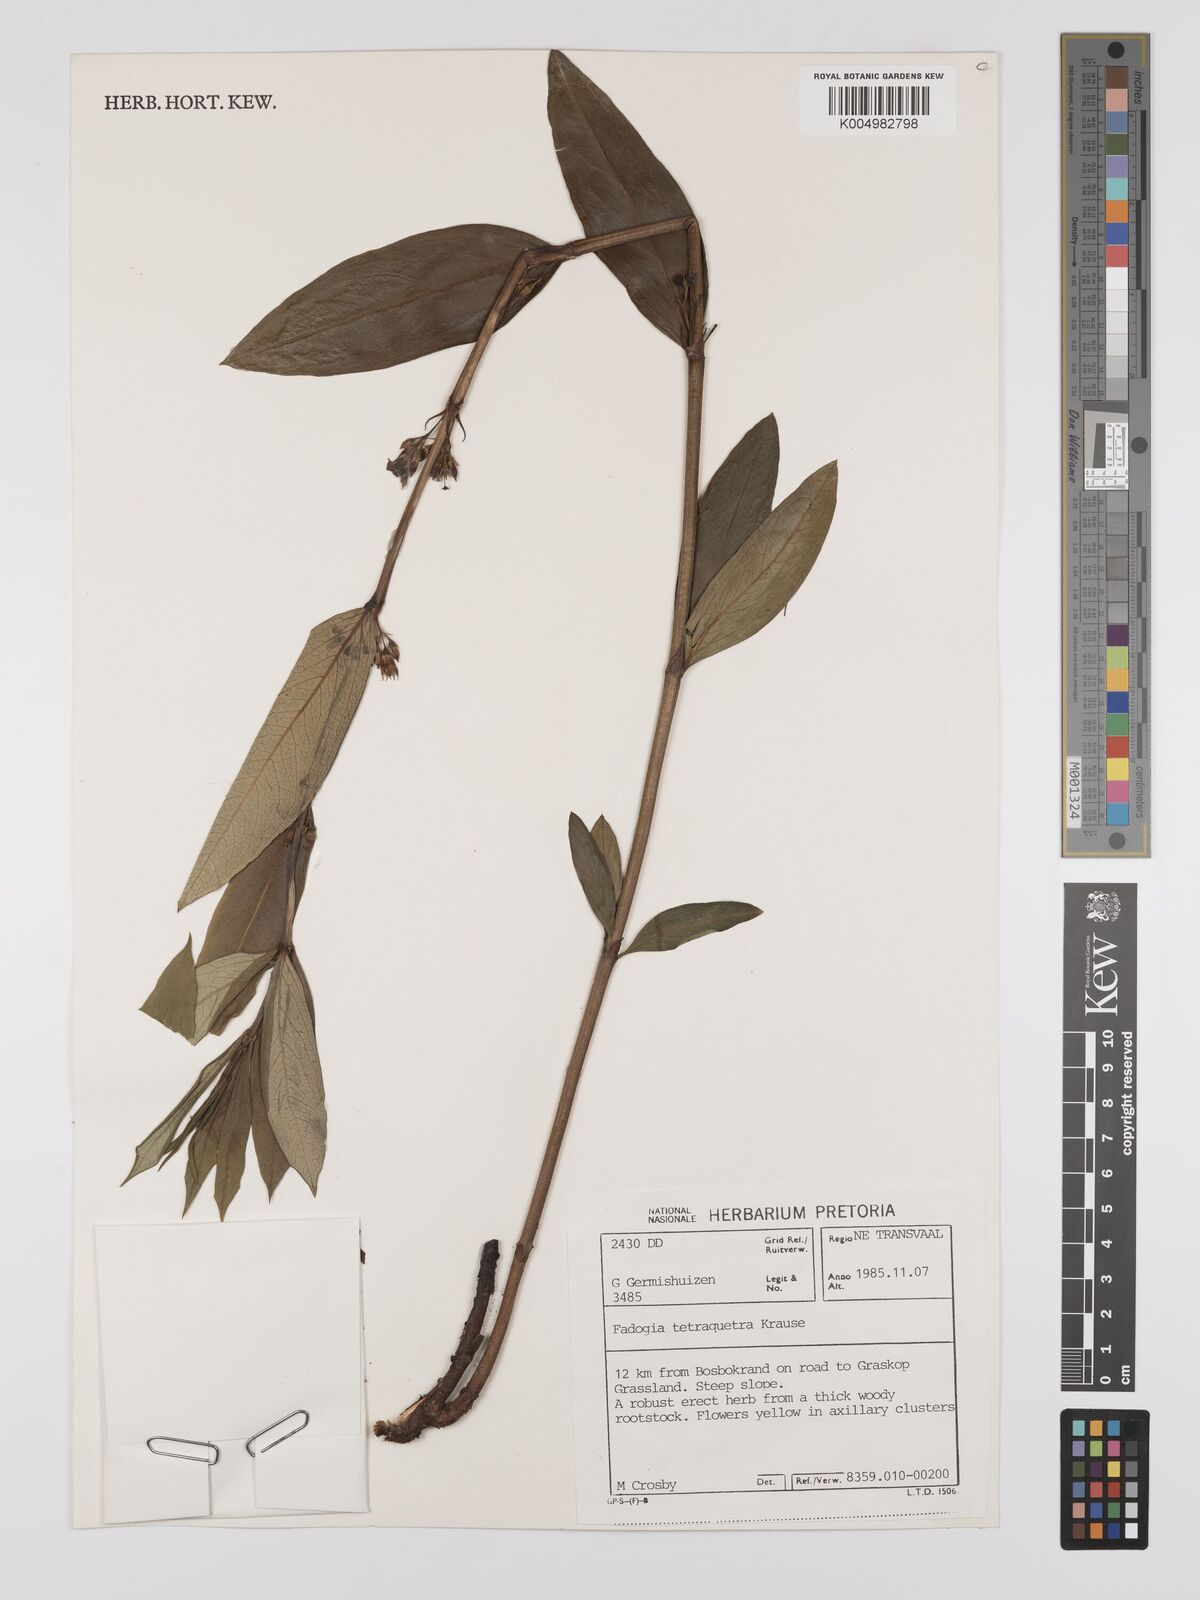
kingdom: Plantae
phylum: Tracheophyta
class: Magnoliopsida
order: Gentianales
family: Rubiaceae
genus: Fadogia
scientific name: Fadogia tetraquetra
